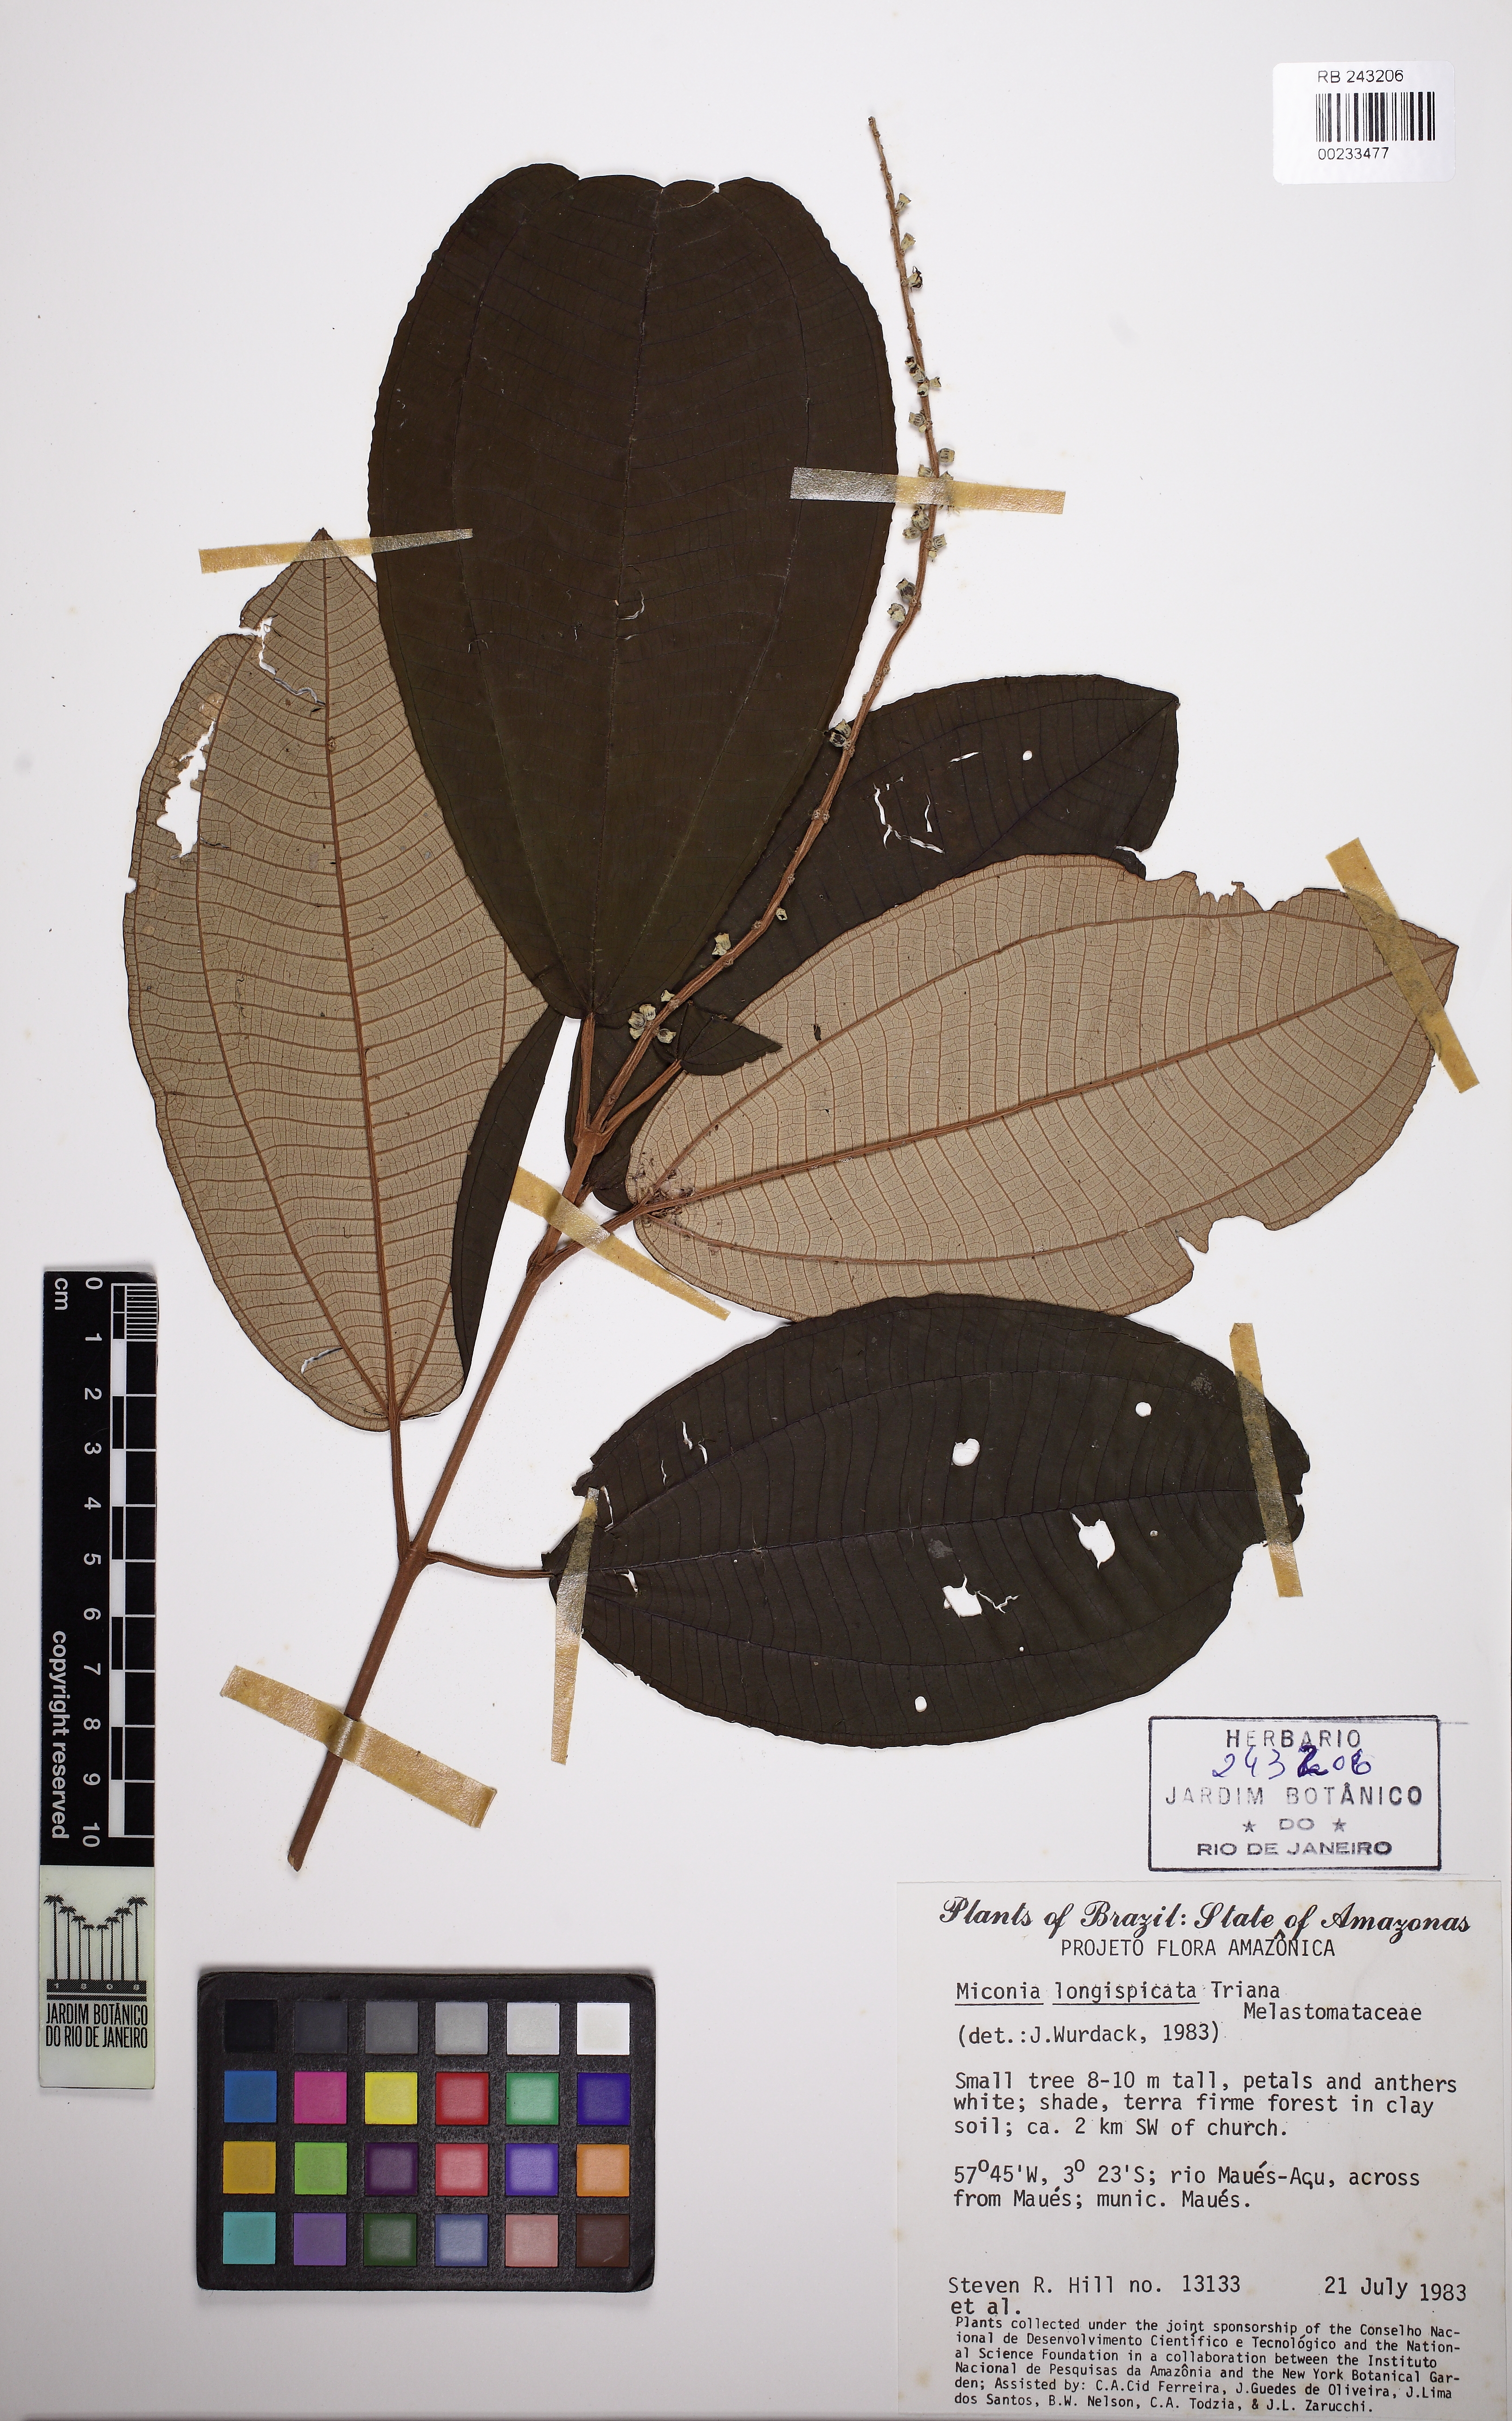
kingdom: Plantae
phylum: Tracheophyta
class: Magnoliopsida
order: Myrtales
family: Melastomataceae
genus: Miconia
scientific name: Miconia longispicata
